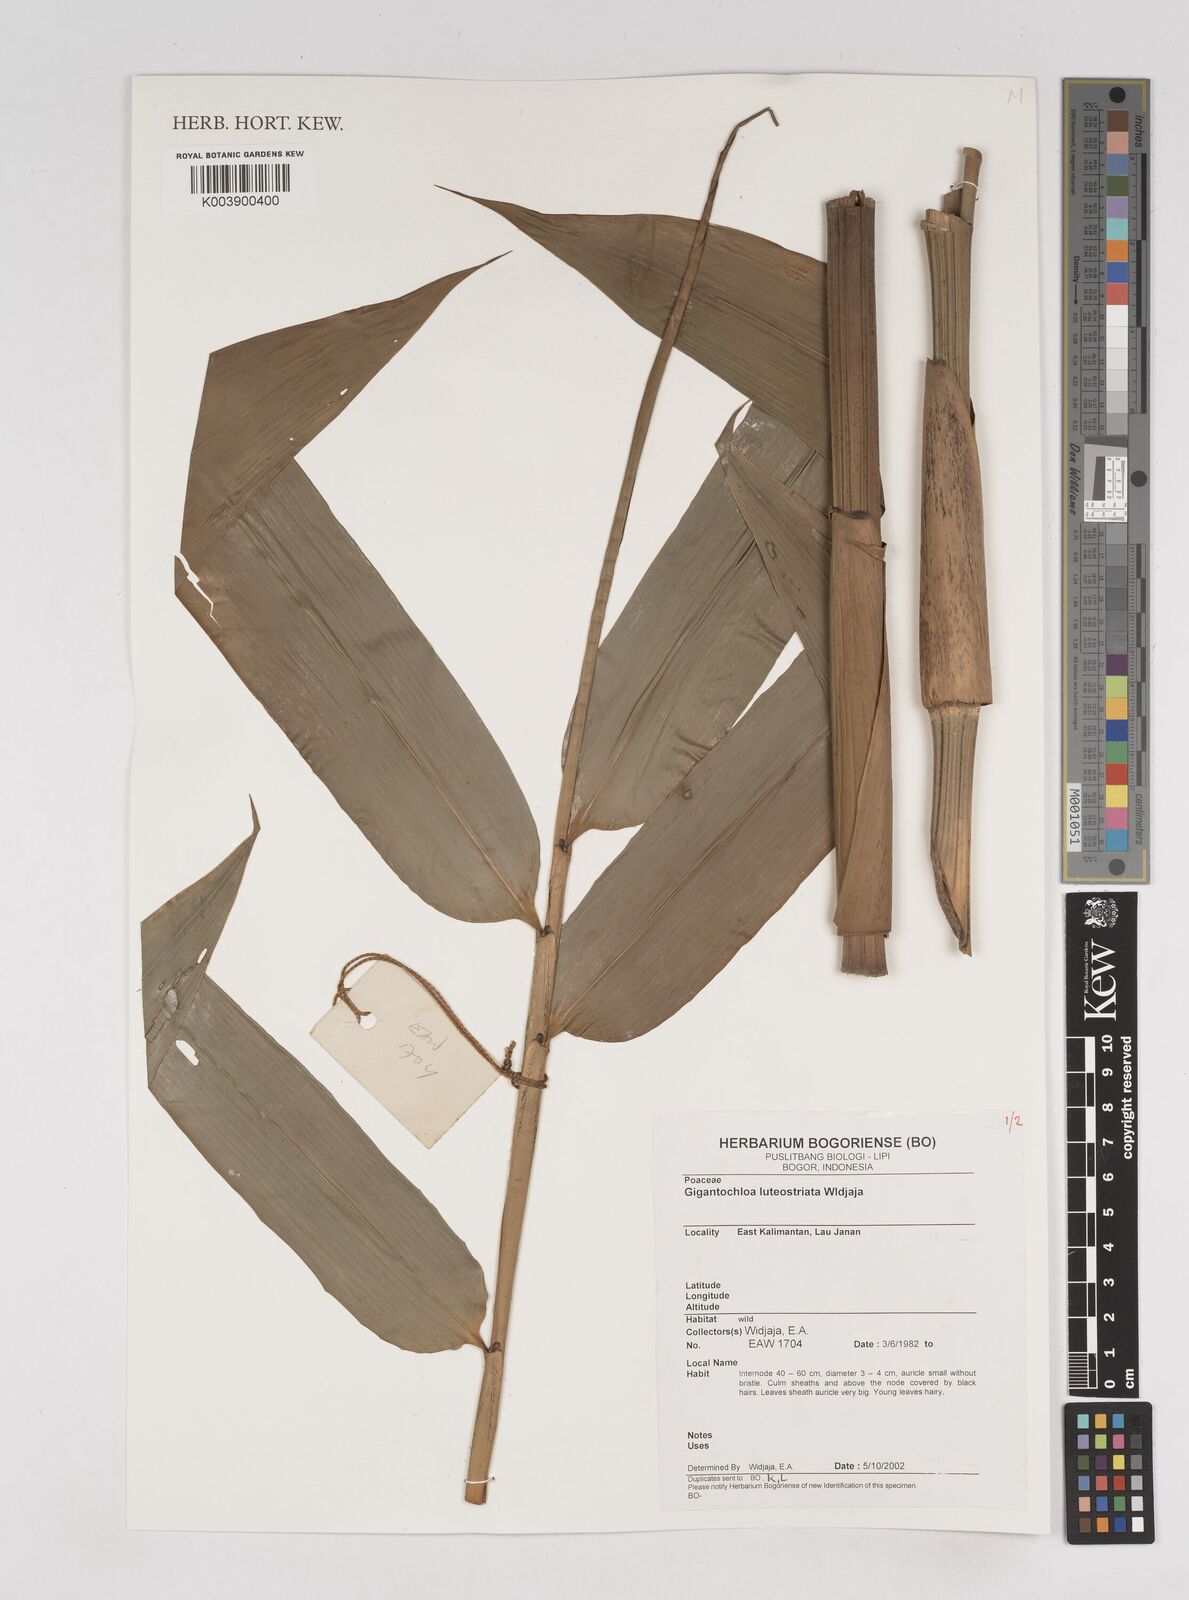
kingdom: Plantae
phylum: Tracheophyta
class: Liliopsida
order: Poales
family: Poaceae
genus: Gigantochloa
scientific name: Gigantochloa luteostriata
